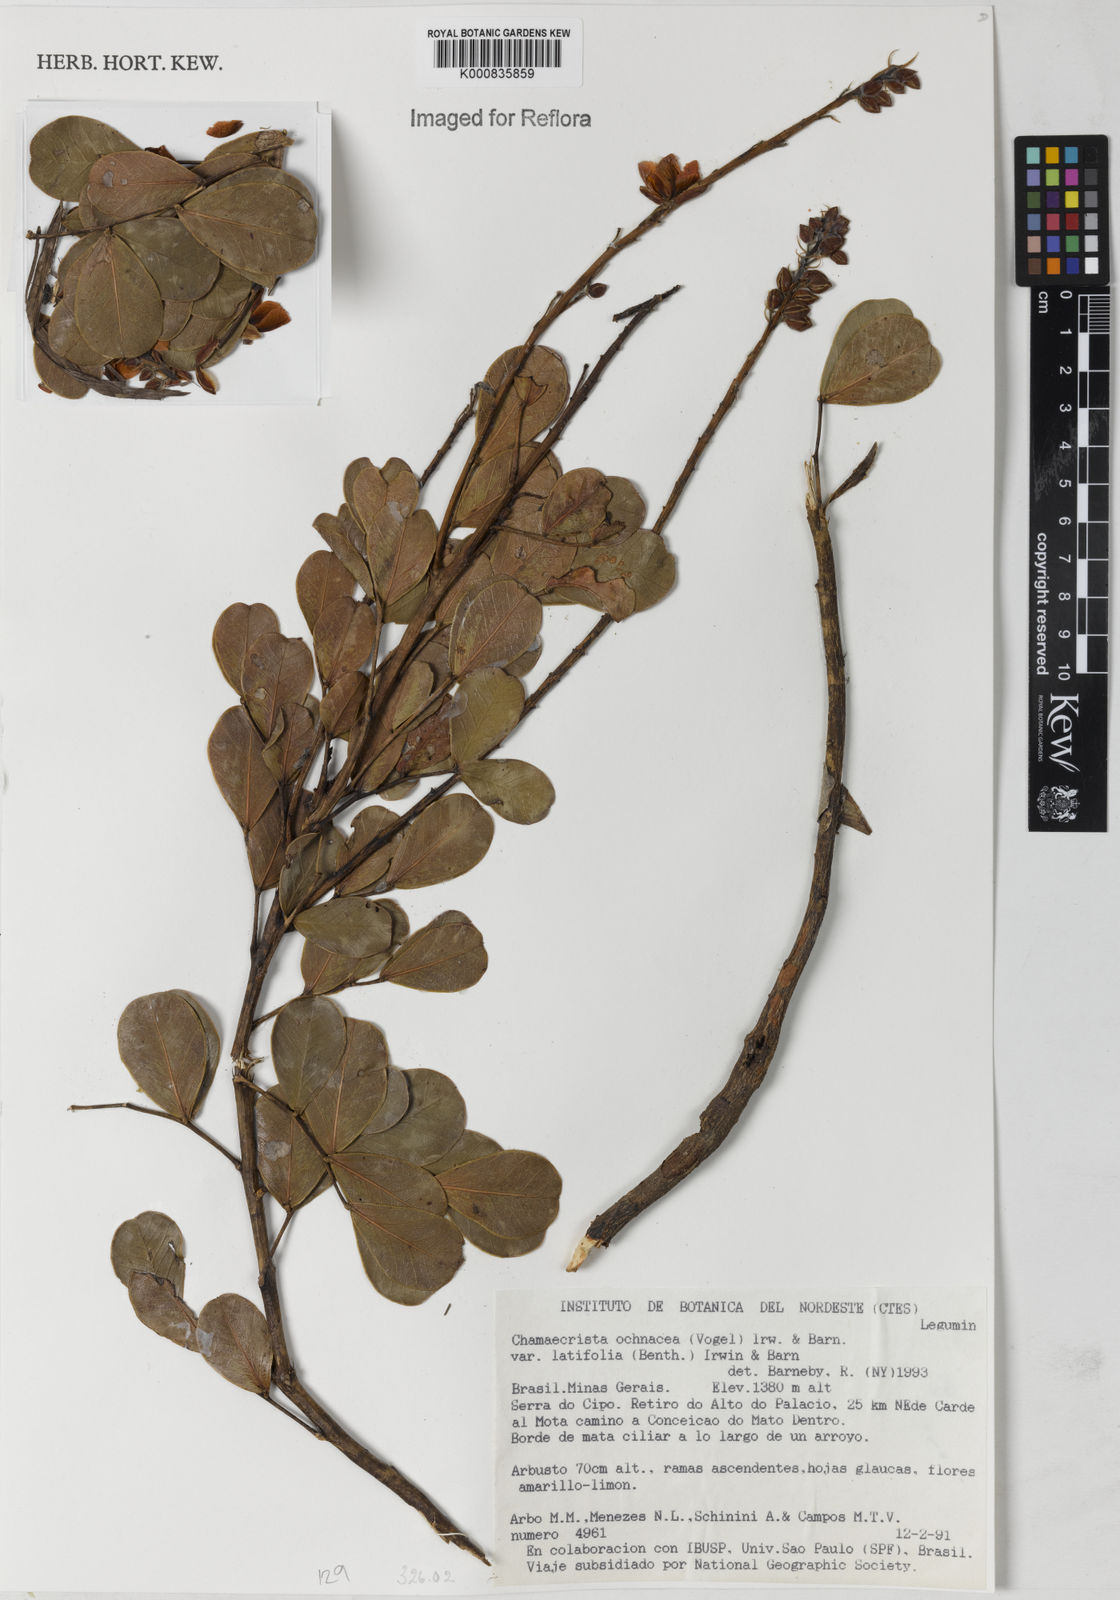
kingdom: Plantae
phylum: Tracheophyta
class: Magnoliopsida
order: Fabales
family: Fabaceae
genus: Chamaecrista
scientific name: Chamaecrista ochnacea
